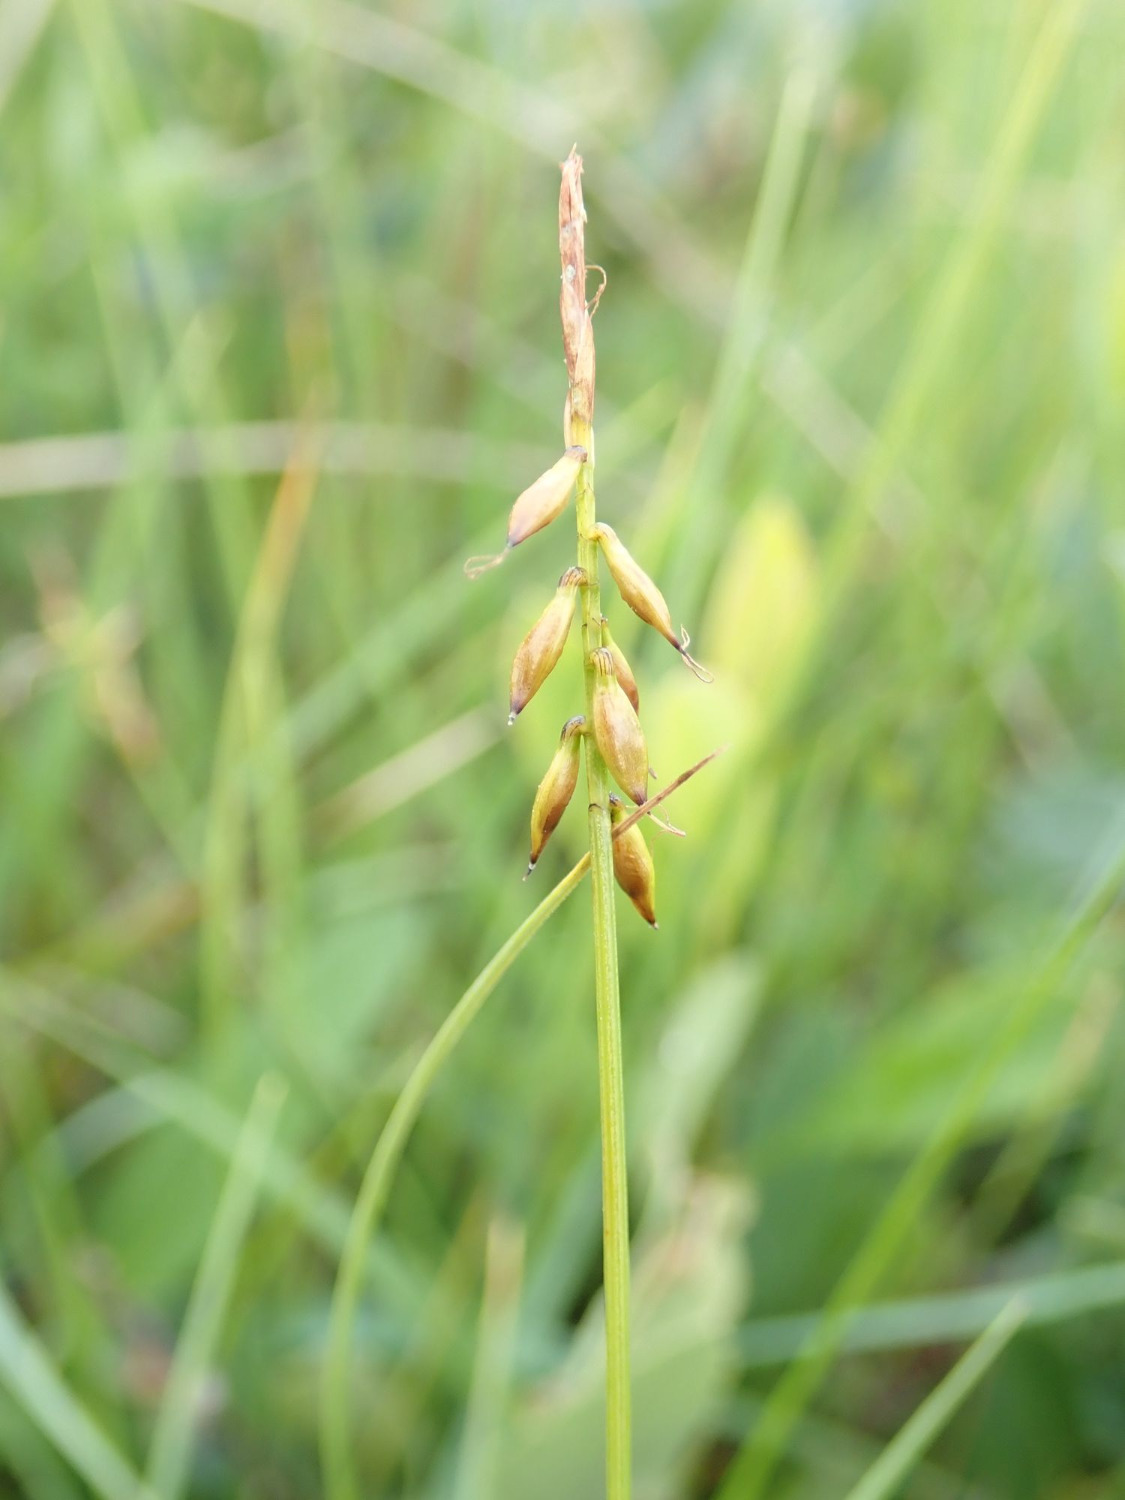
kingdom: Plantae
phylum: Tracheophyta
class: Liliopsida
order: Poales
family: Cyperaceae
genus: Carex
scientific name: Carex pulicaris
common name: Loppe-star
